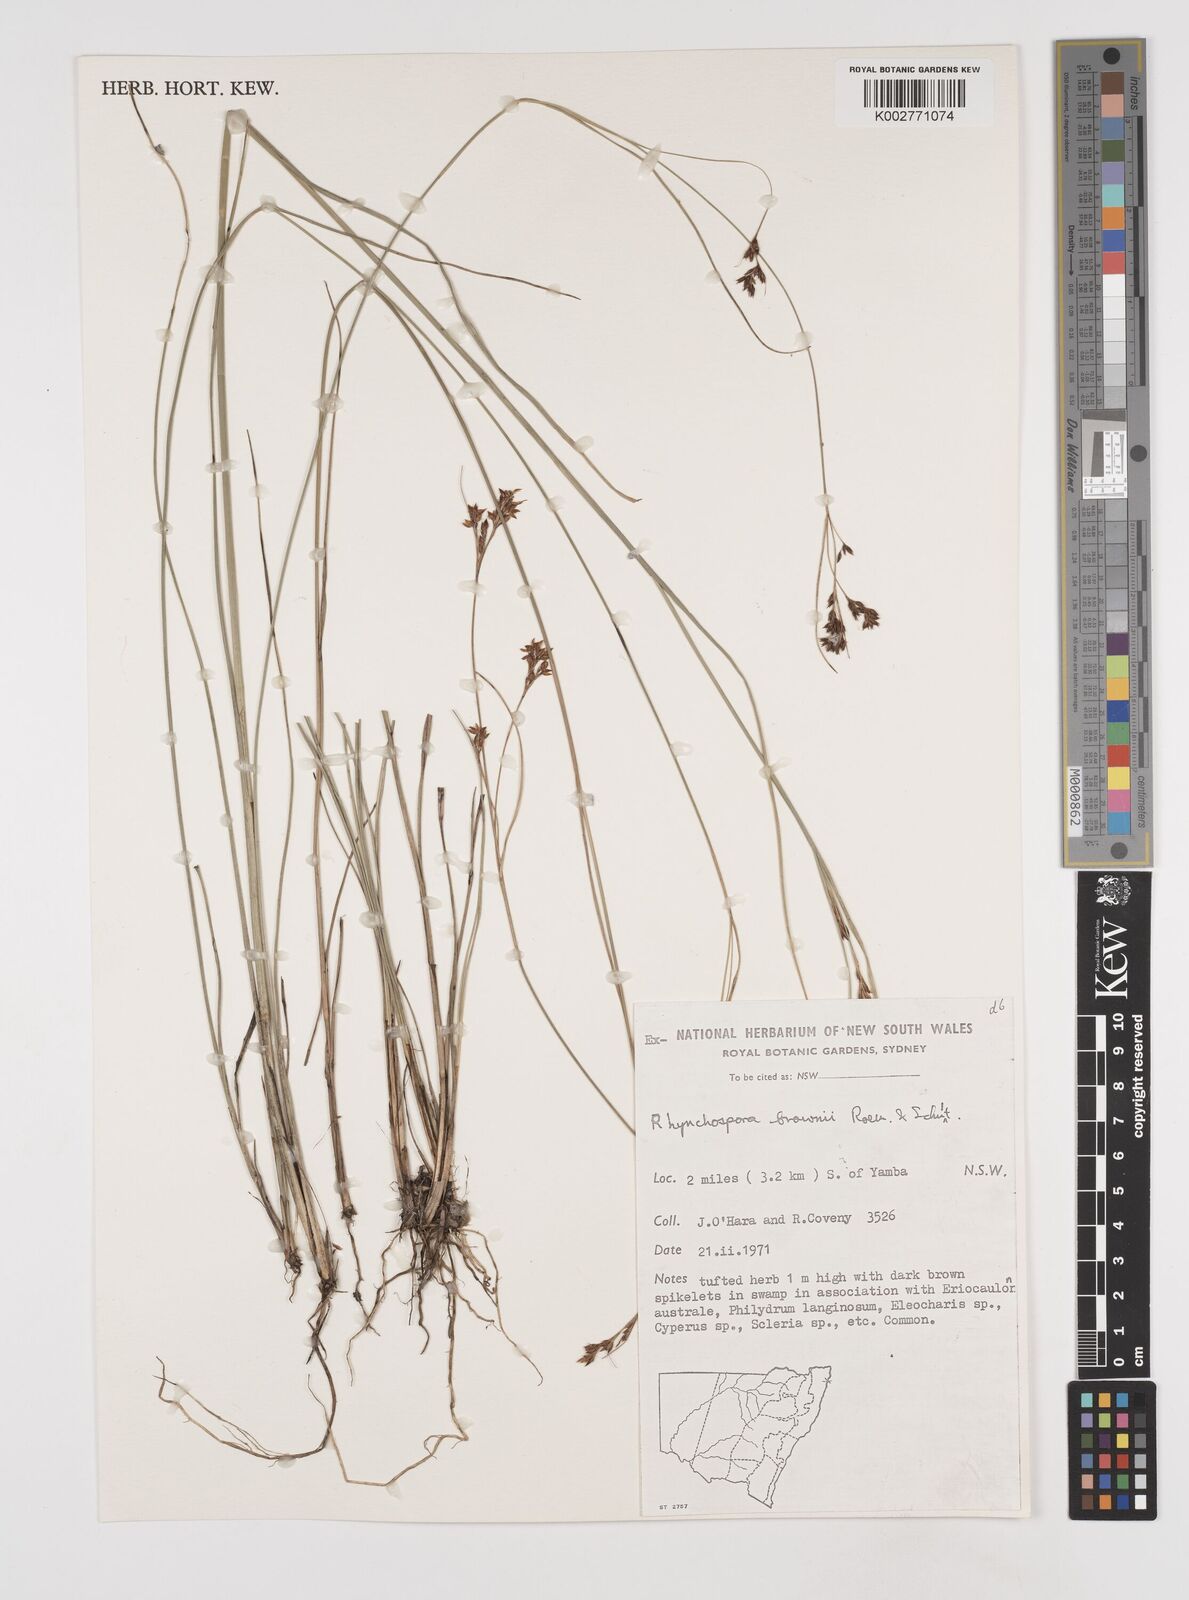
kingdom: Plantae
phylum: Tracheophyta
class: Liliopsida
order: Poales
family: Cyperaceae
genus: Rhynchospora
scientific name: Rhynchospora rugosa
